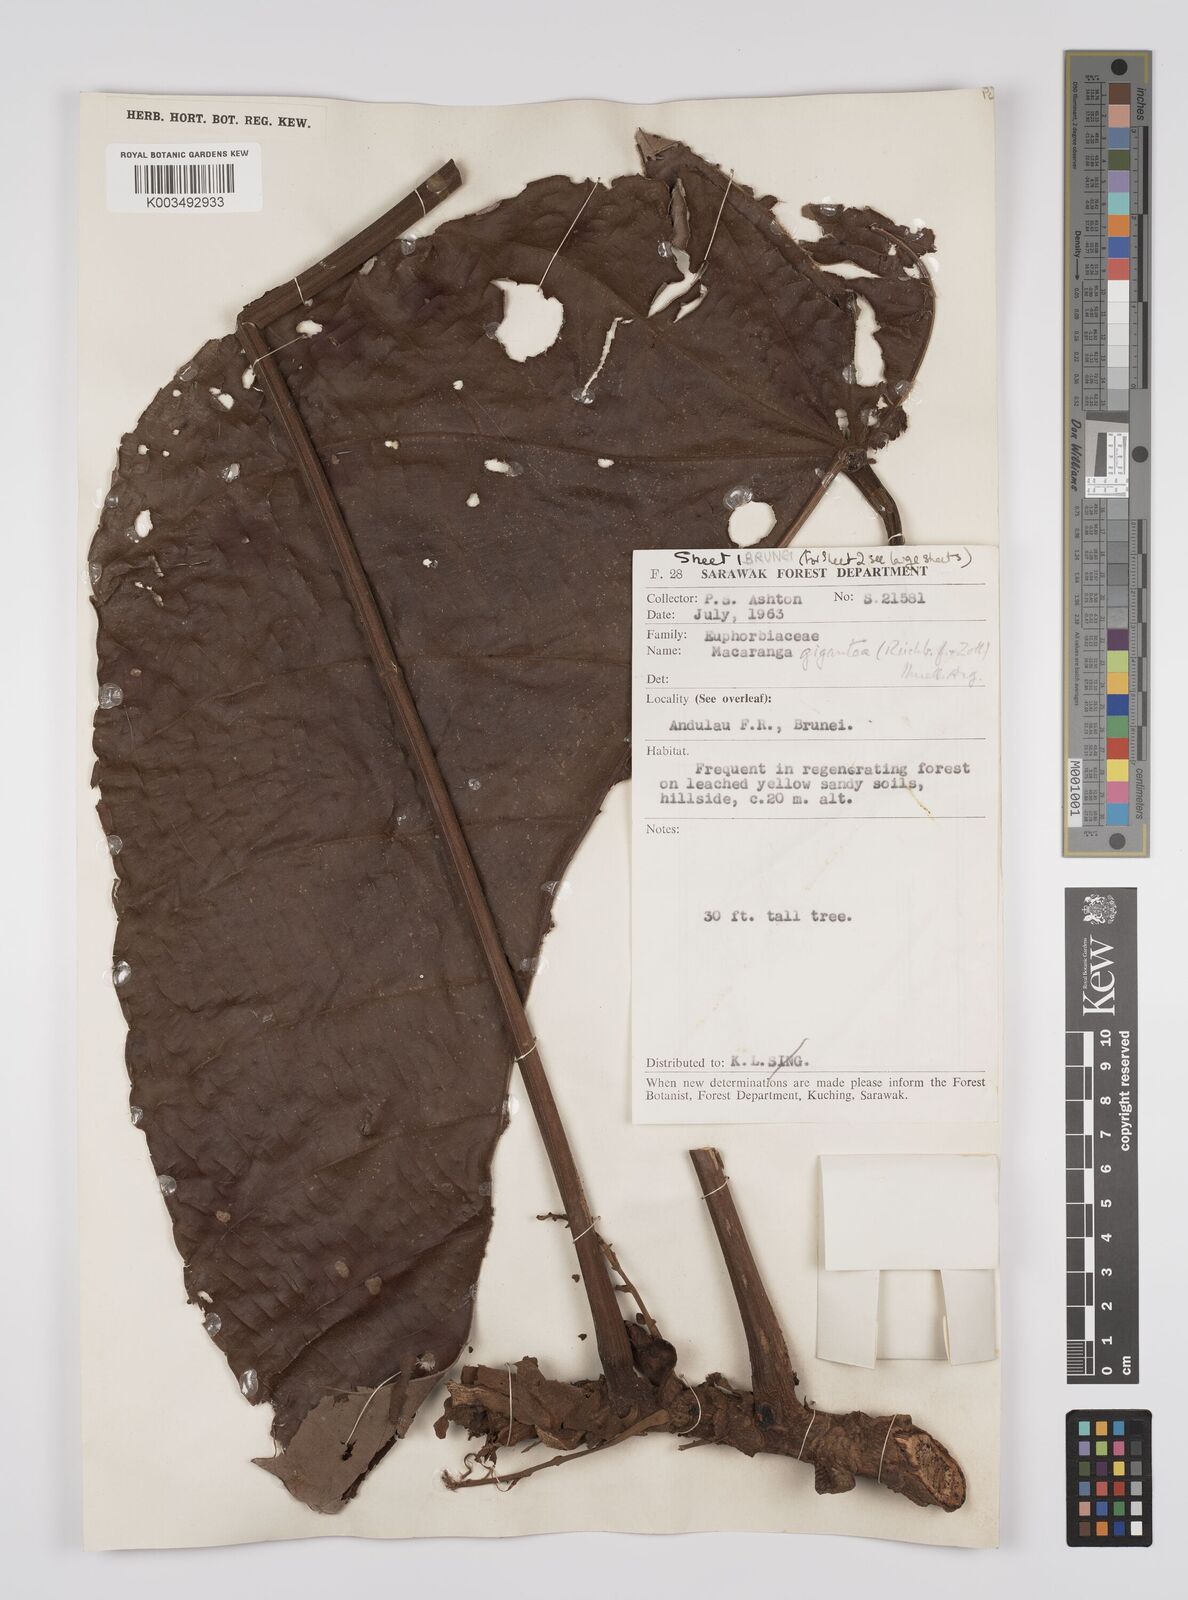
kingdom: Plantae
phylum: Tracheophyta
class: Magnoliopsida
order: Malpighiales
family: Euphorbiaceae
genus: Macaranga
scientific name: Macaranga gigantea
